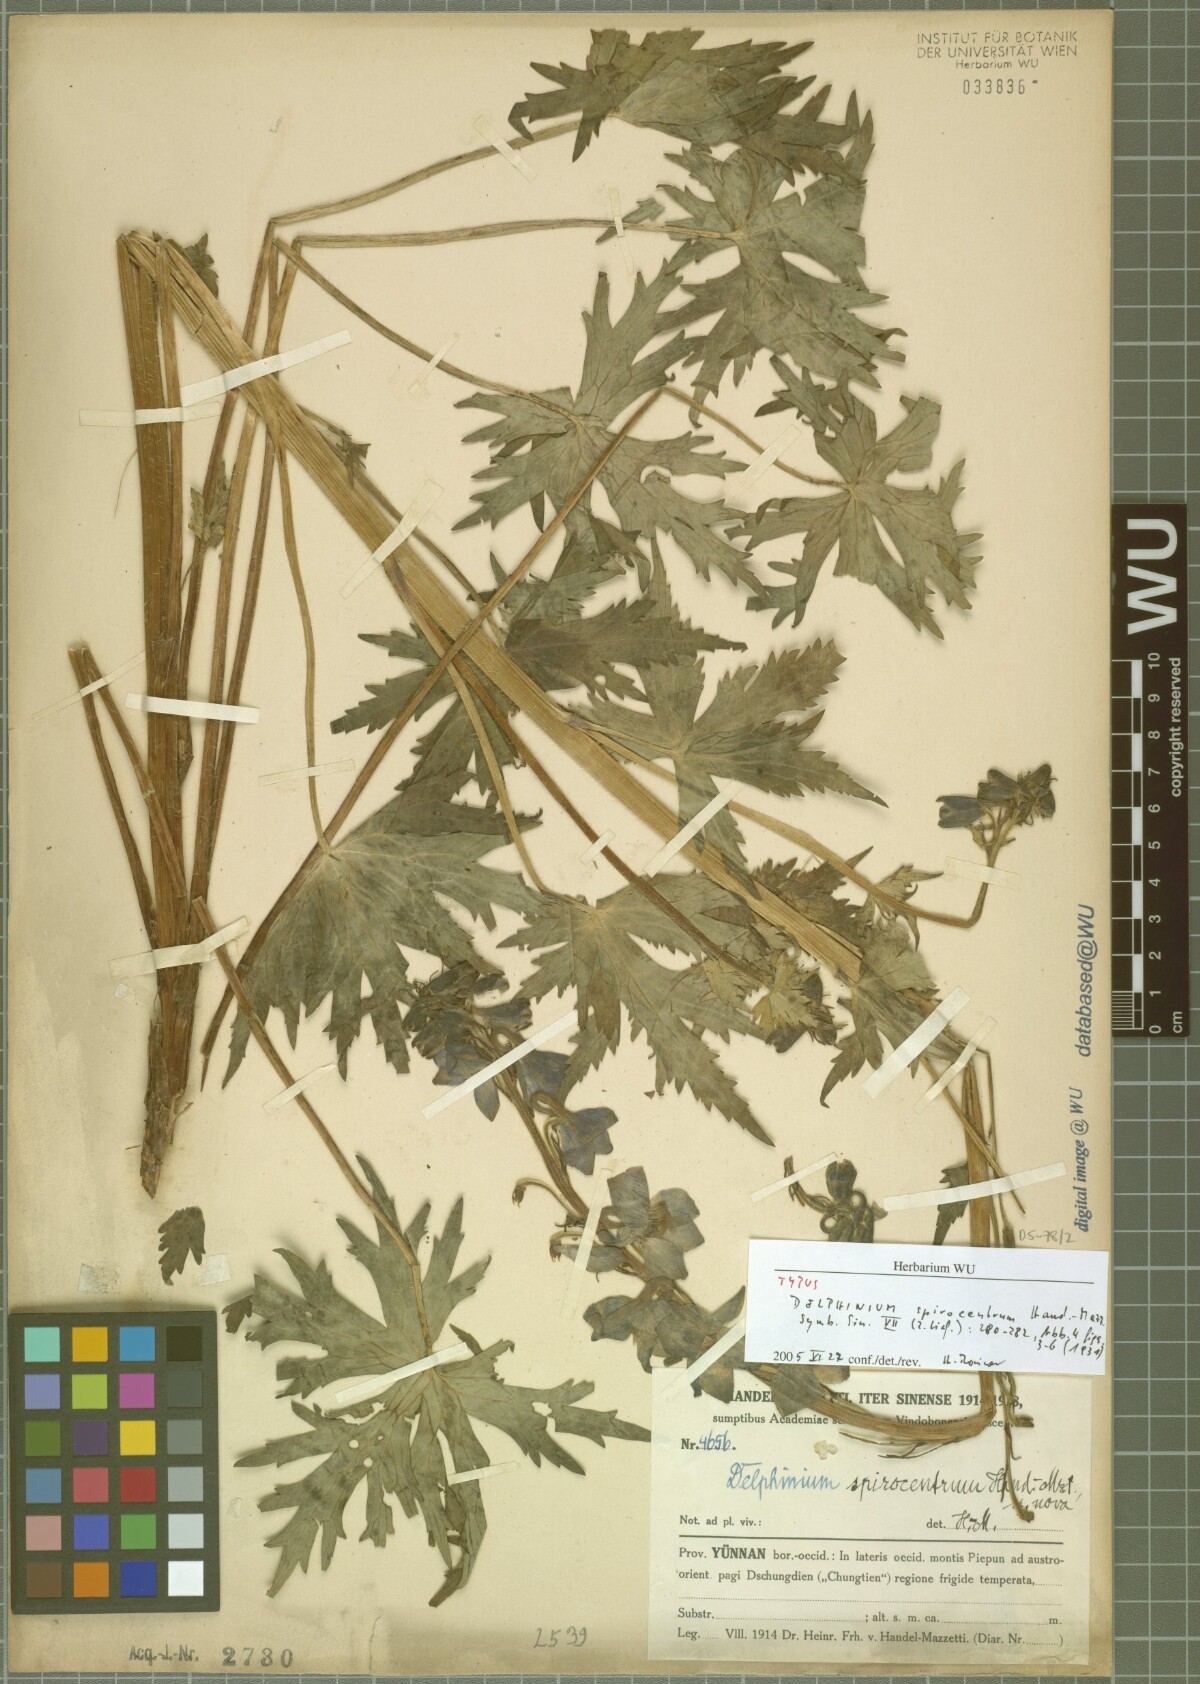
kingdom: Plantae
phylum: Tracheophyta
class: Magnoliopsida
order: Ranunculales
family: Ranunculaceae
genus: Delphinium
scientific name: Delphinium spirocentrum
